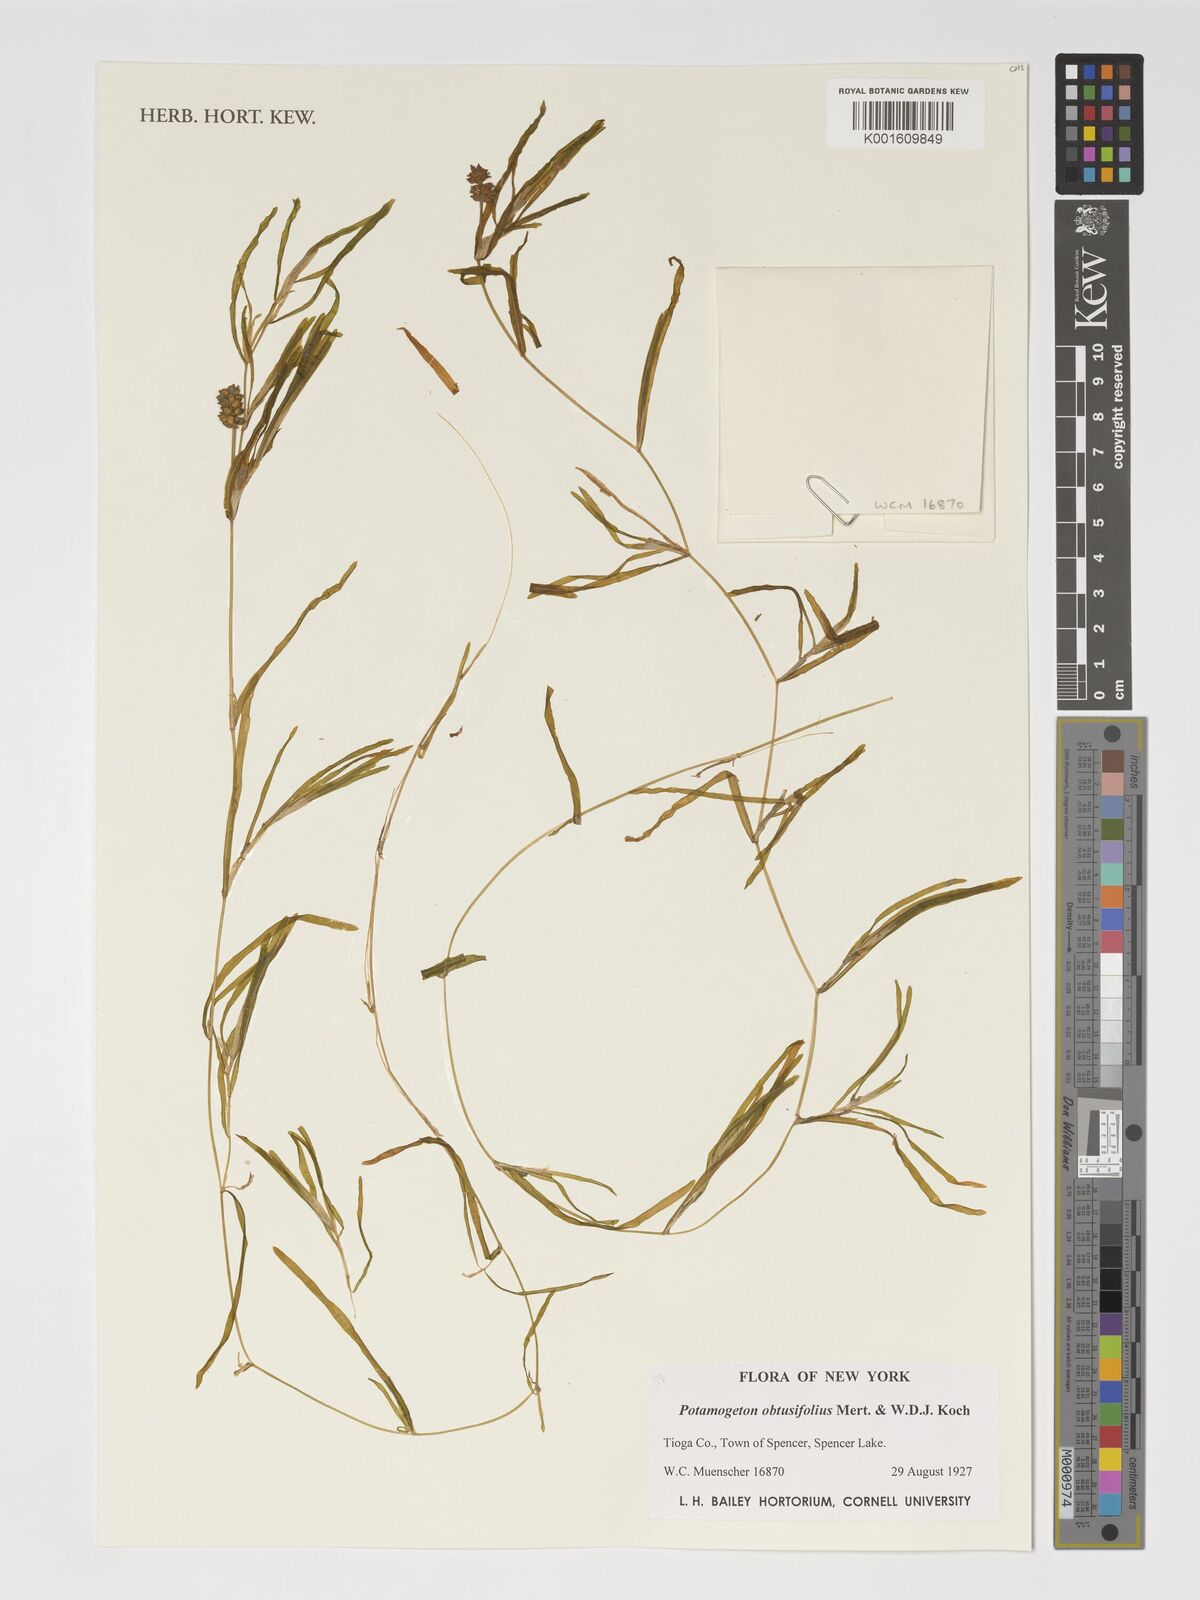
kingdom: Plantae
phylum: Tracheophyta
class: Liliopsida
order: Alismatales
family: Potamogetonaceae
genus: Potamogeton
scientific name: Potamogeton obtusifolius
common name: Blunt-leaved pondweed
